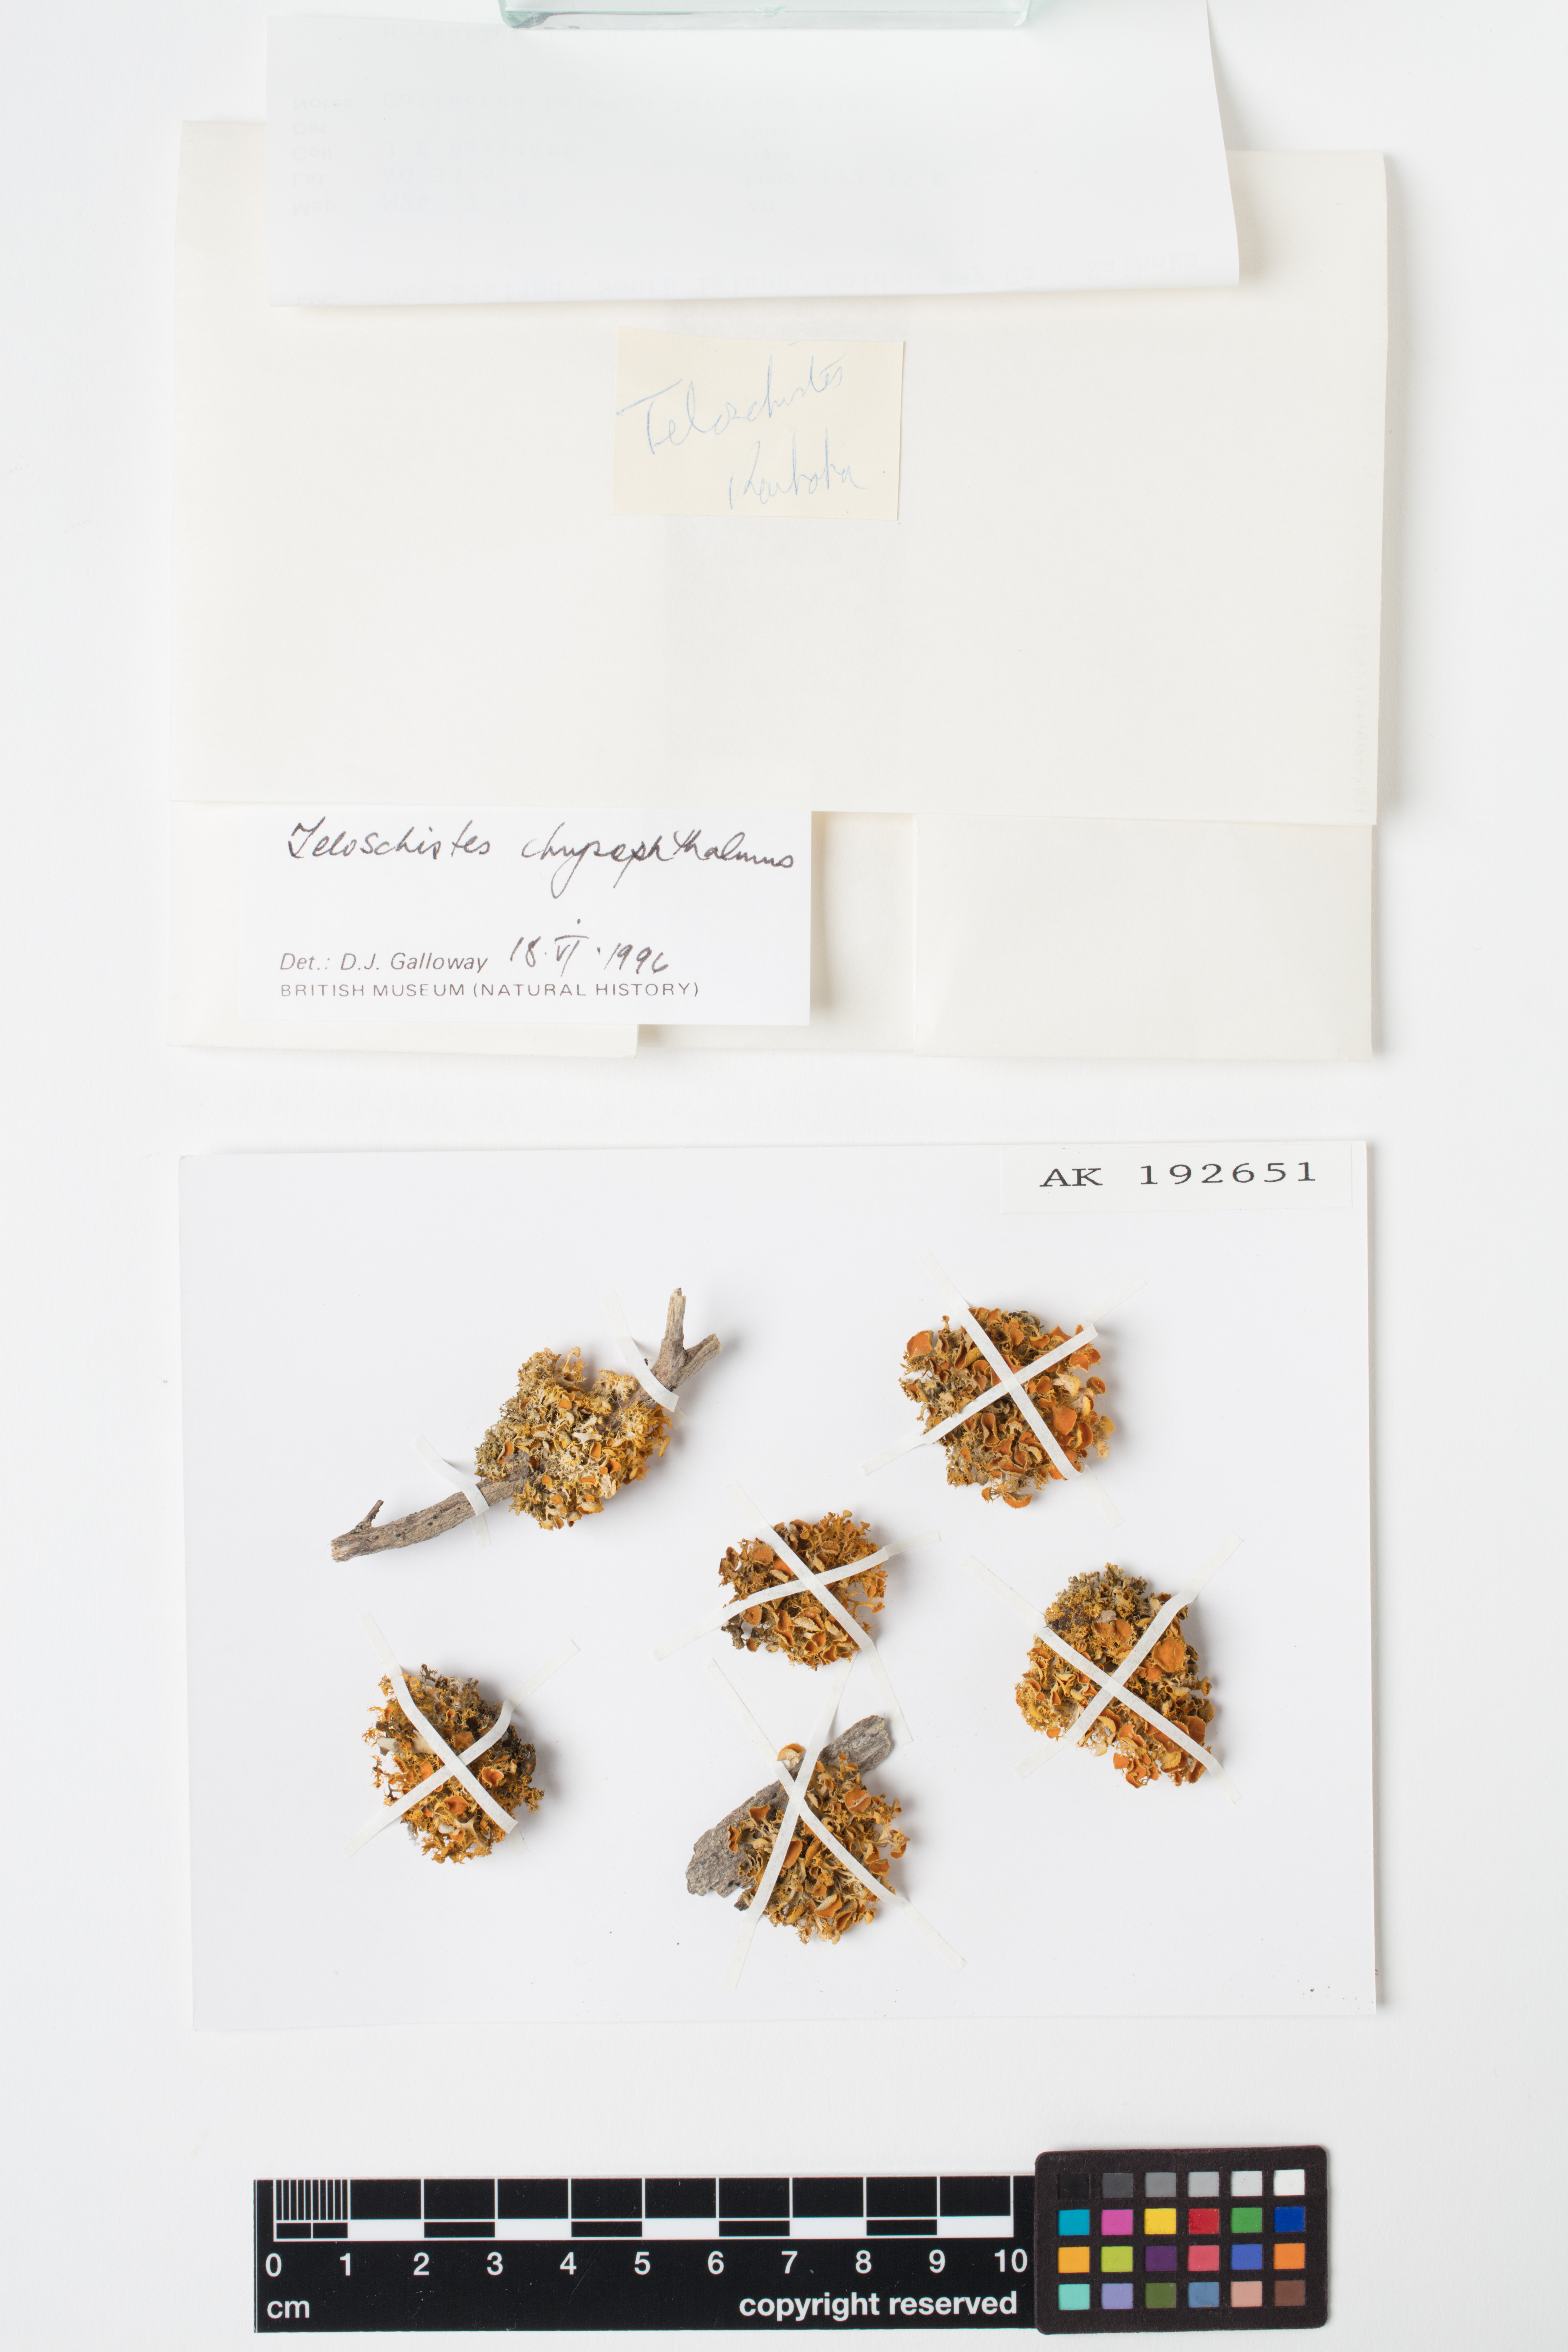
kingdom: Fungi
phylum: Ascomycota
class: Lecanoromycetes
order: Teloschistales
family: Teloschistaceae
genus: Niorma
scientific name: Niorma chrysophthalma
